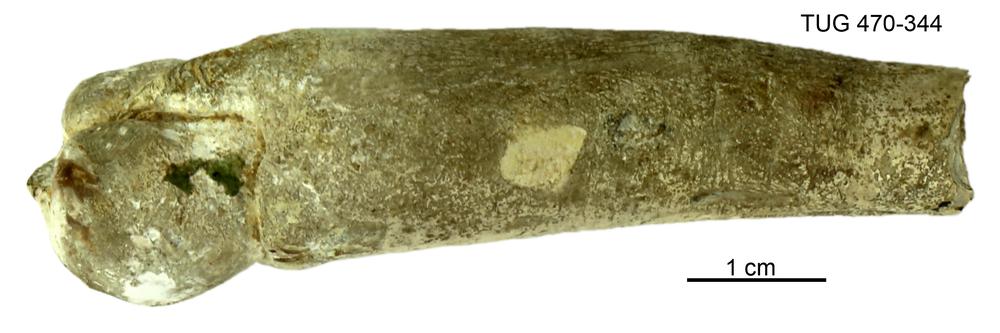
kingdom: Animalia
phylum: Mollusca
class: Bivalvia
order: Myida
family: Teredinidae
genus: Teredina
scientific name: Teredina personata
